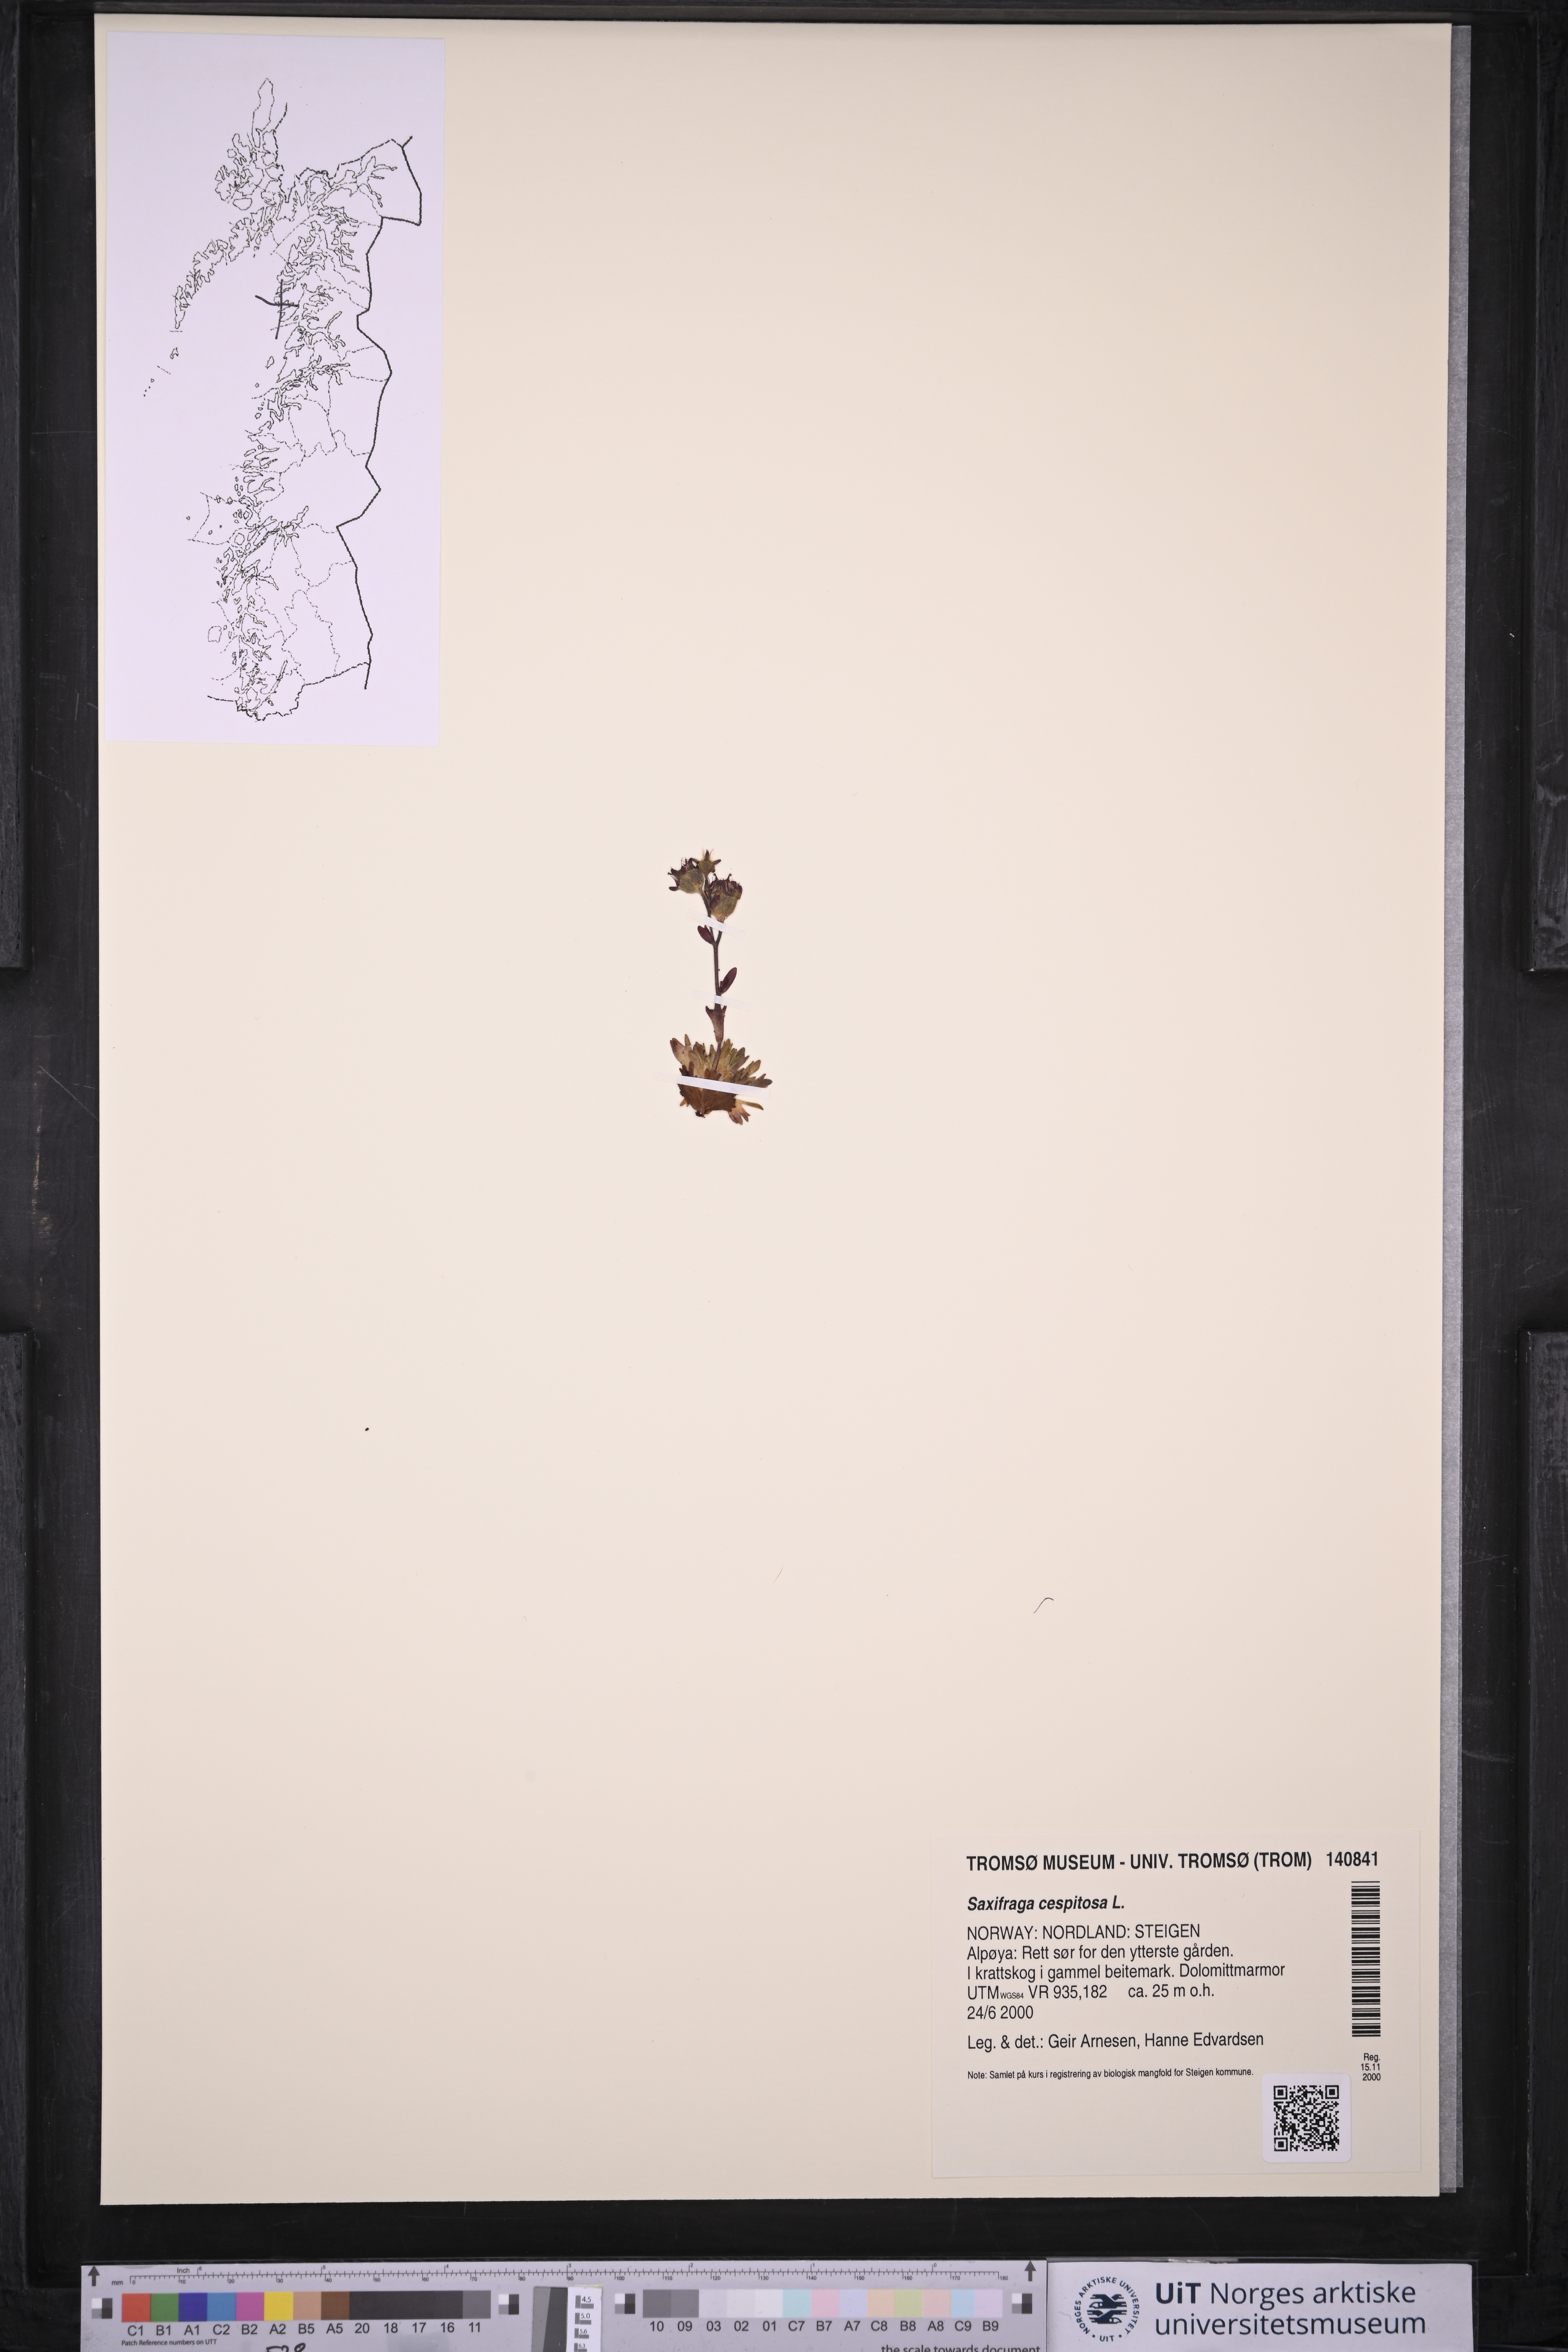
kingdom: Plantae
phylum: Tracheophyta
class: Magnoliopsida
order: Saxifragales
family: Saxifragaceae
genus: Saxifraga
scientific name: Saxifraga cespitosa
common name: Tufted saxifrage
